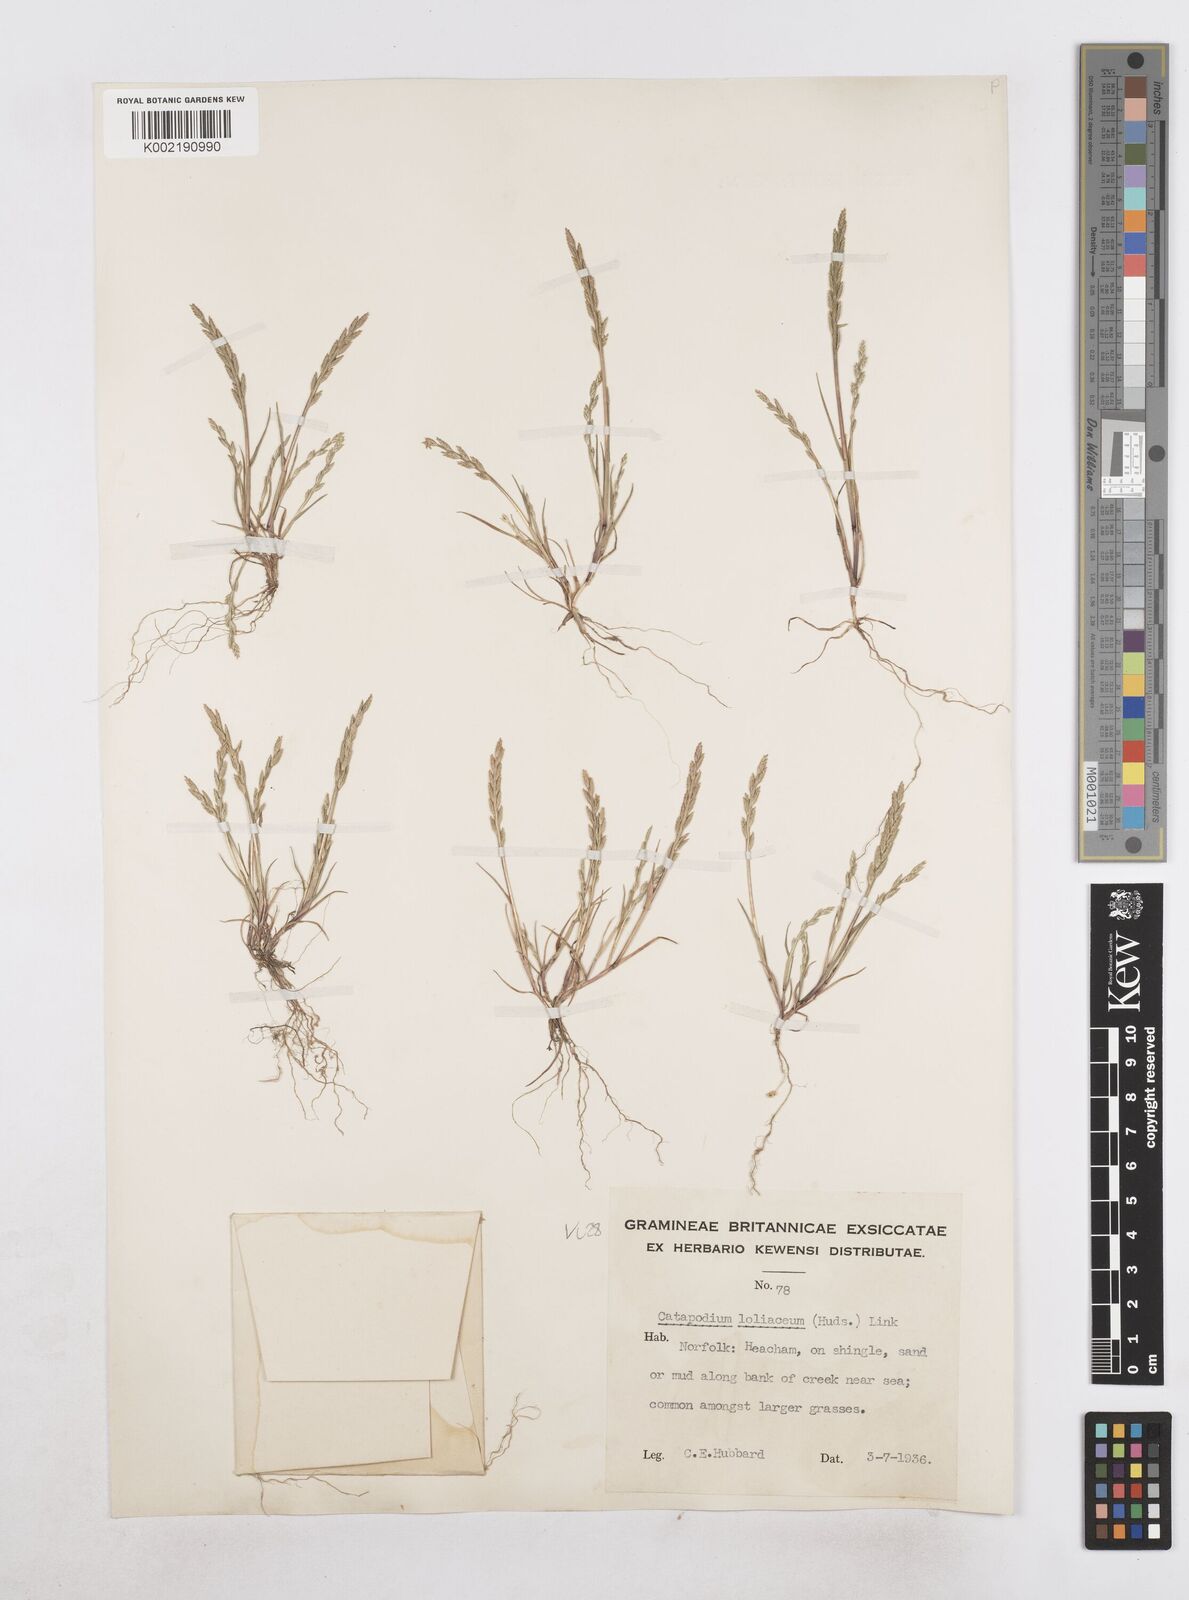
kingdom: Plantae
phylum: Tracheophyta
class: Liliopsida
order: Poales
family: Poaceae
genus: Catapodium
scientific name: Catapodium marinum
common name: Sea fern-grass
